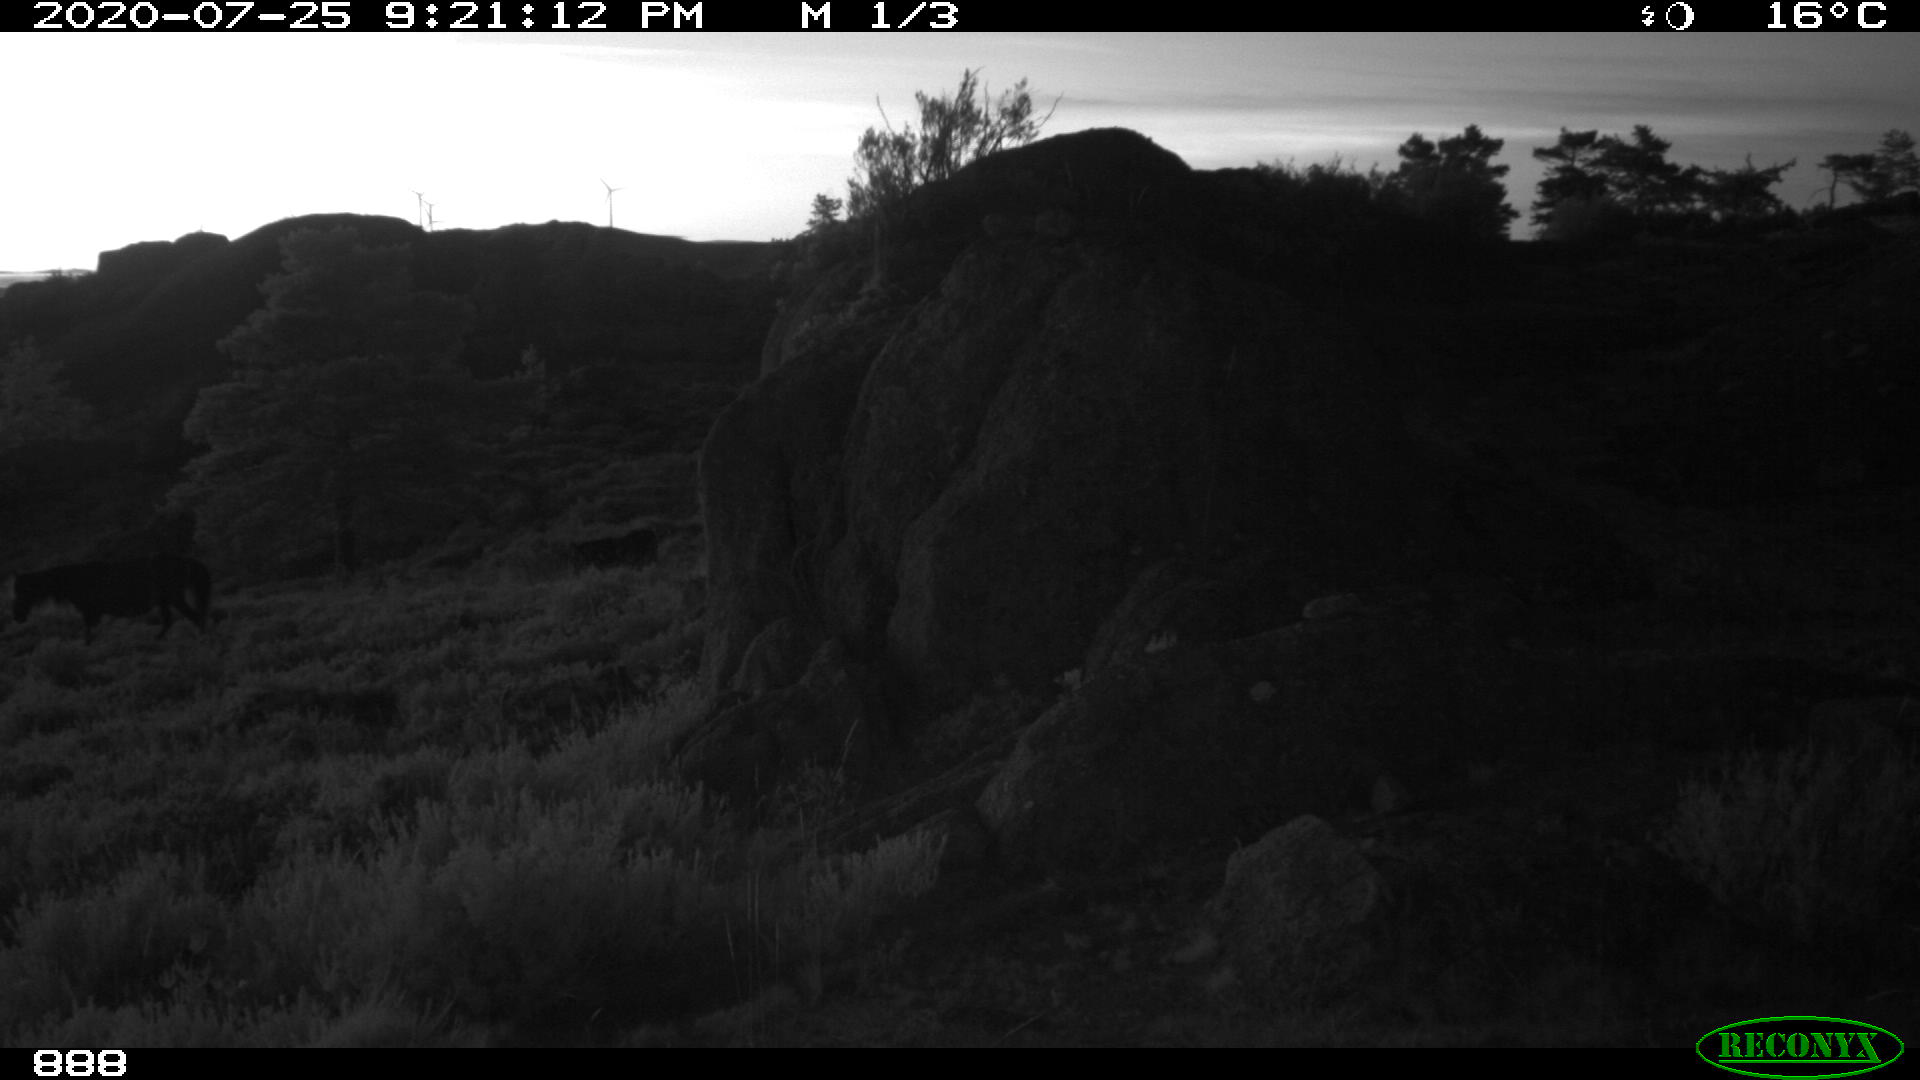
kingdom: Animalia
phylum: Chordata
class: Mammalia
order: Perissodactyla
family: Equidae
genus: Equus
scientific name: Equus caballus
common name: Horse
